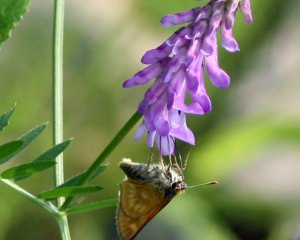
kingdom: Animalia
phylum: Arthropoda
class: Insecta
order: Lepidoptera
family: Hesperiidae
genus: Polites
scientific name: Polites
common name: Long Dash Skipper
